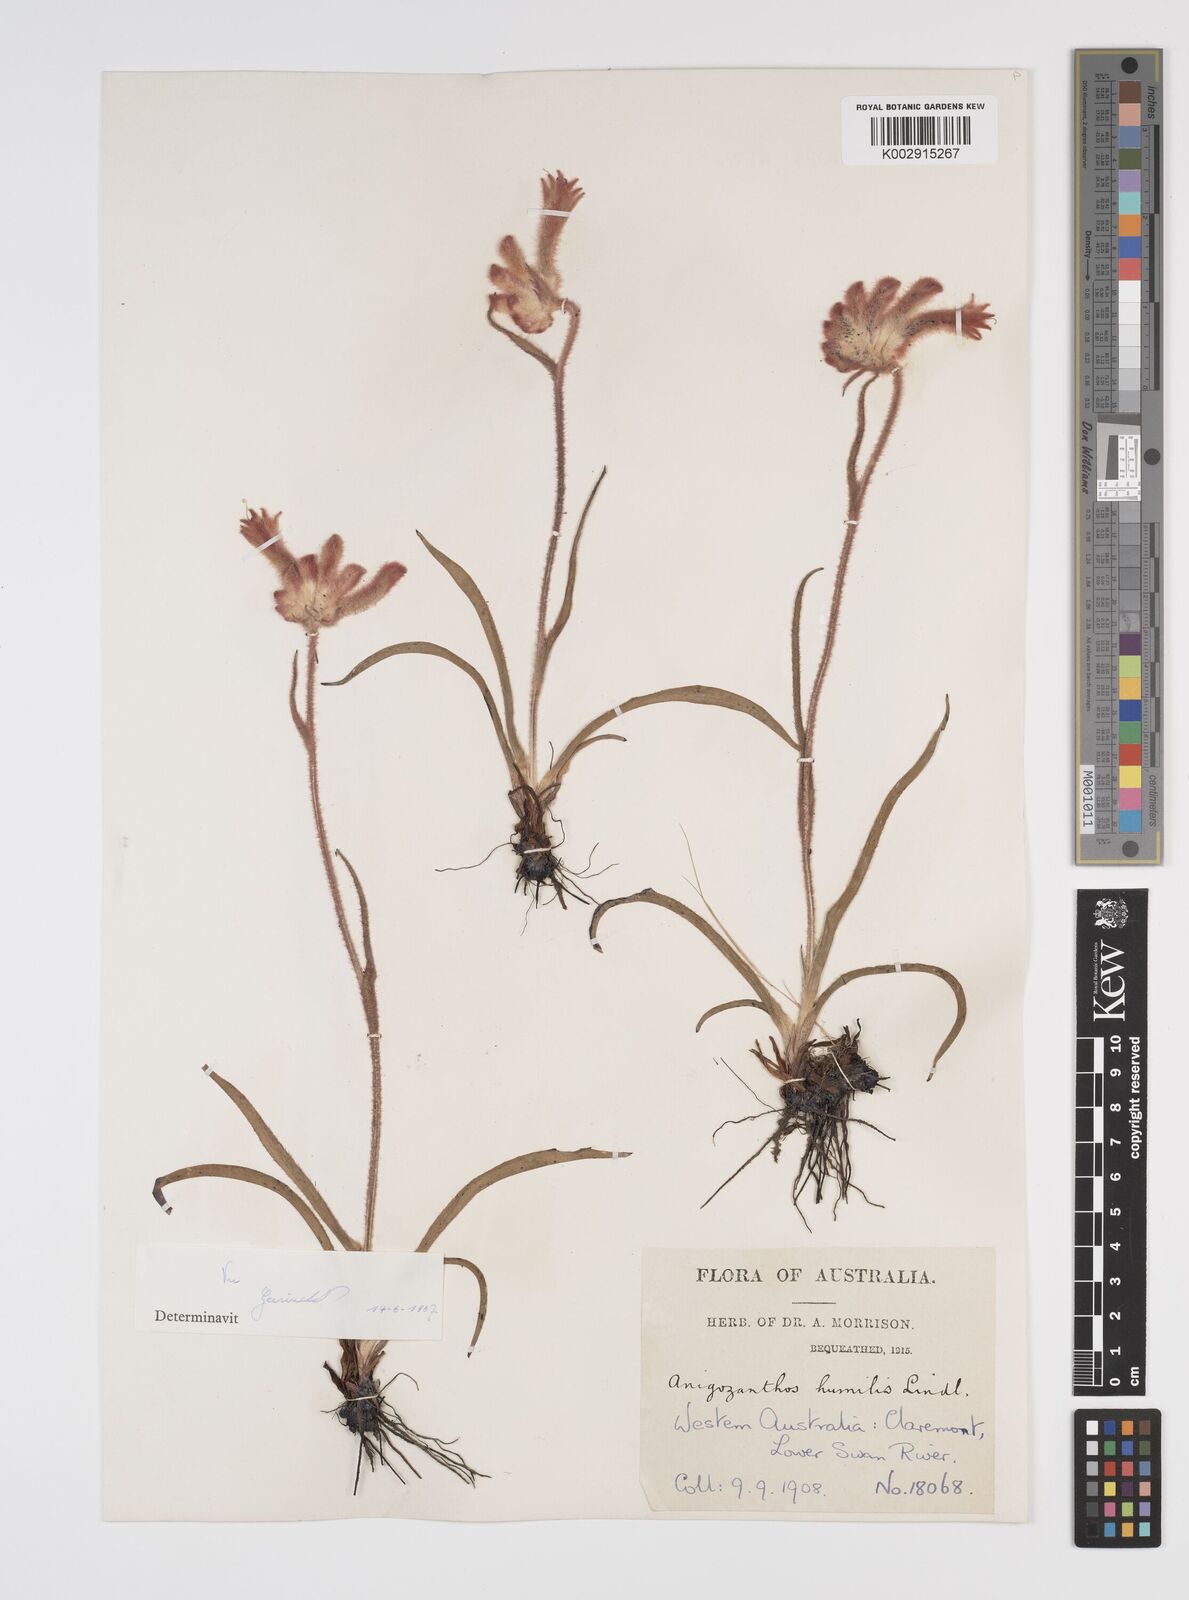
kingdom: Plantae
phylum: Tracheophyta
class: Liliopsida
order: Commelinales
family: Haemodoraceae
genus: Anigozanthos
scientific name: Anigozanthos humilis
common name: Cat's-paw
